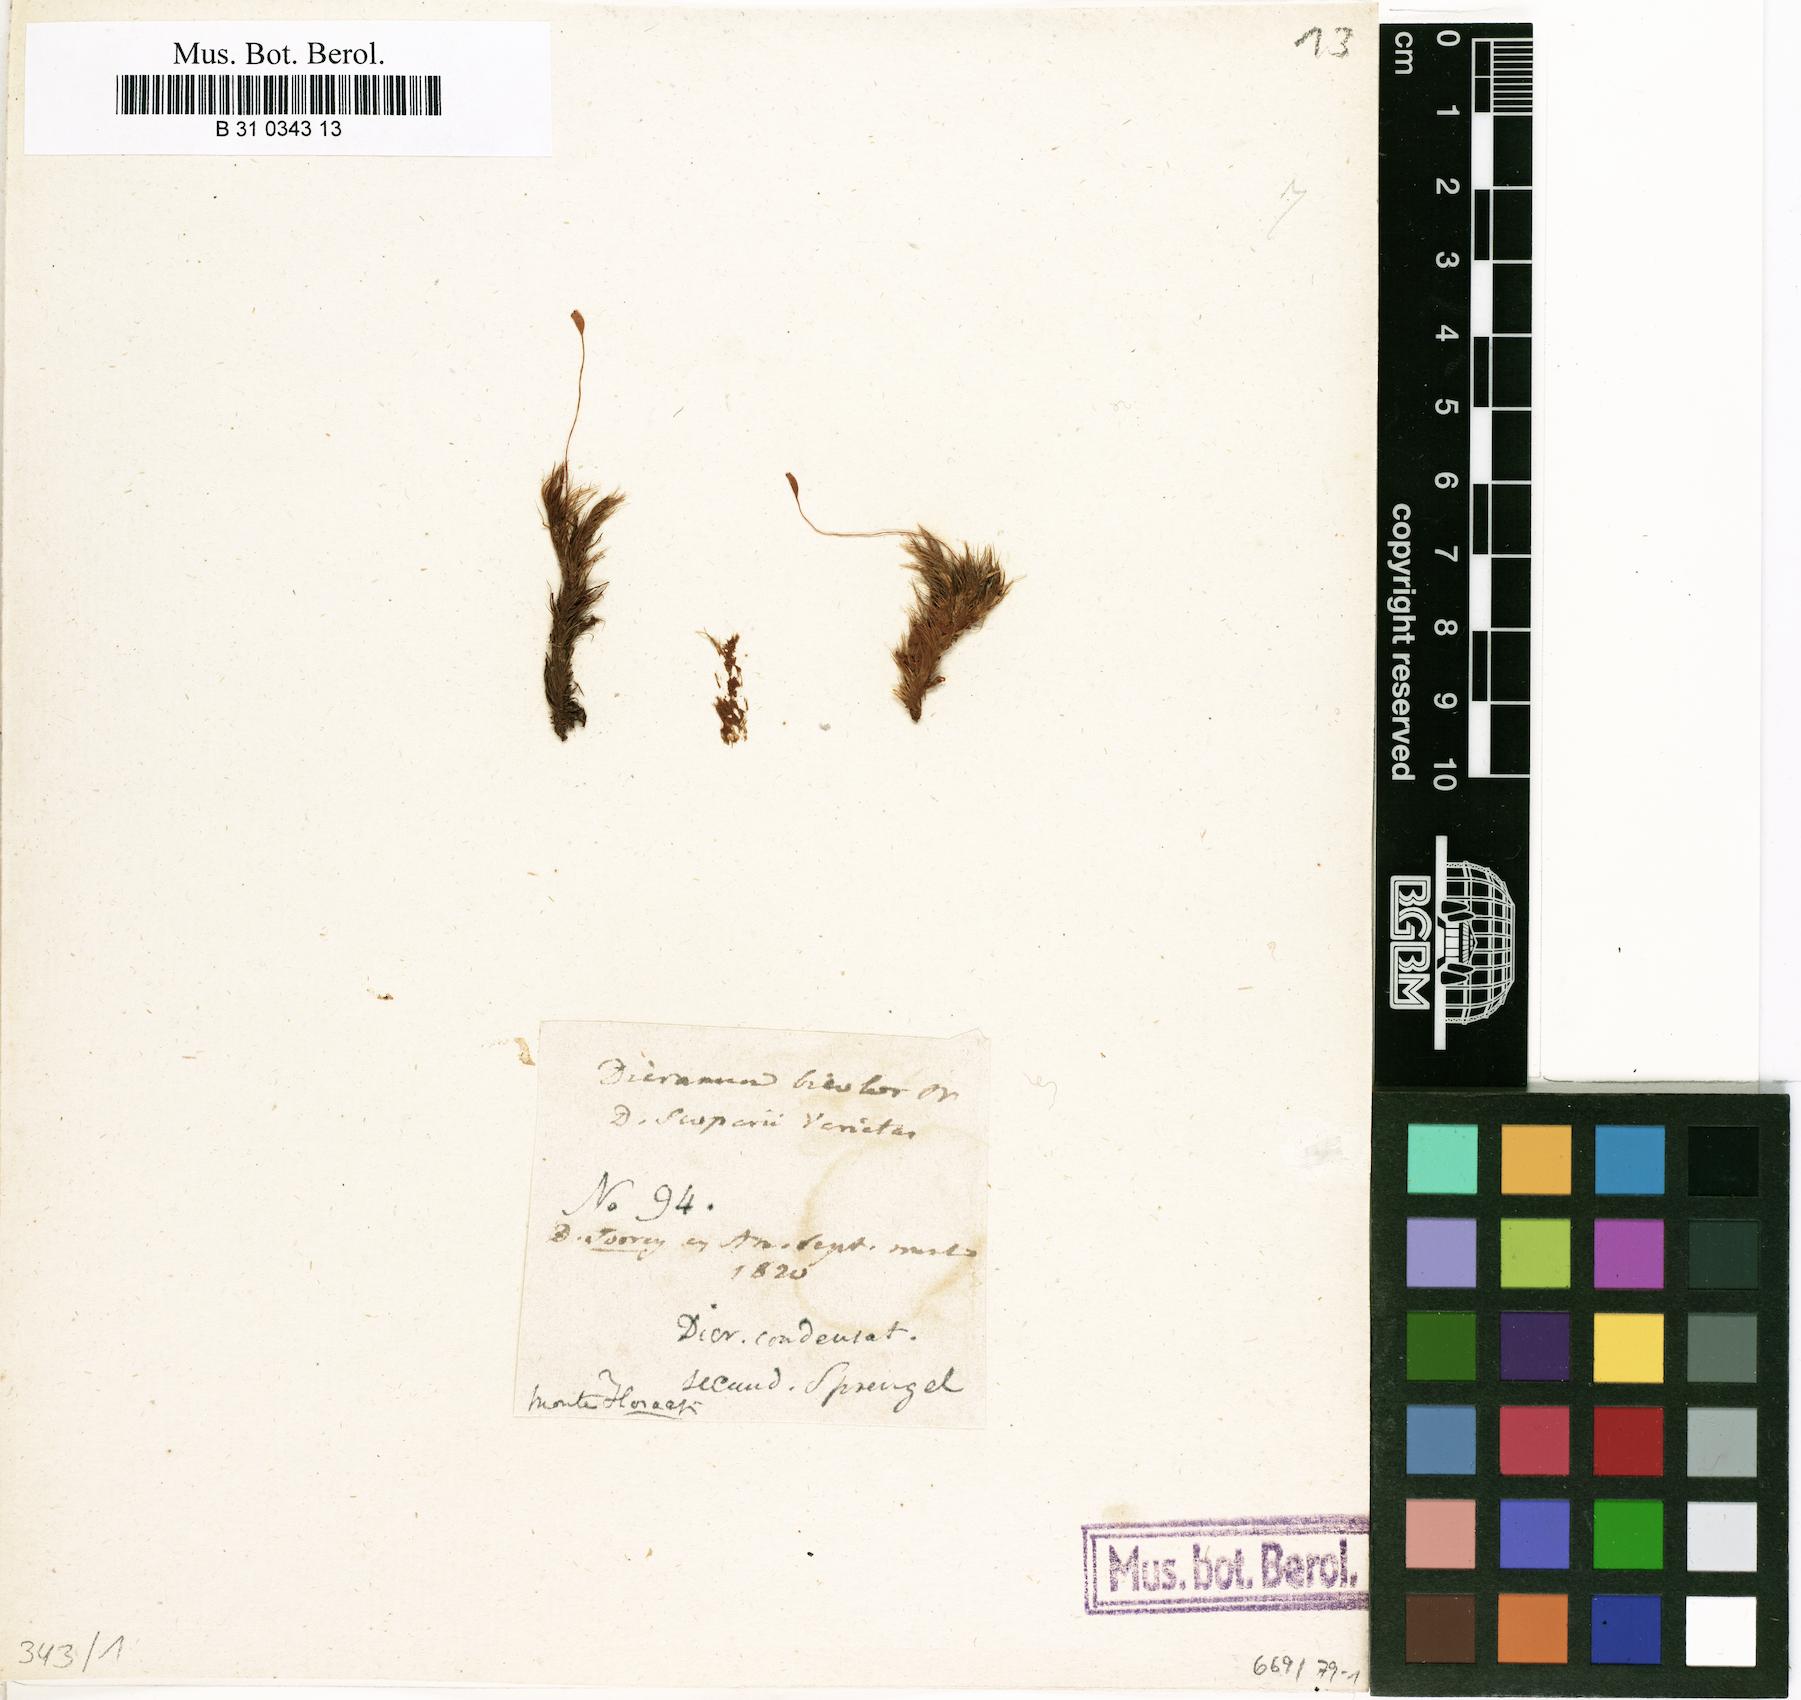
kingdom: Plantae
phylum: Bryophyta
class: Bryopsida
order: Dicranales
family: Dicranaceae
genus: Dicranum
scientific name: Dicranum scoparium
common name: Broom fork-moss
